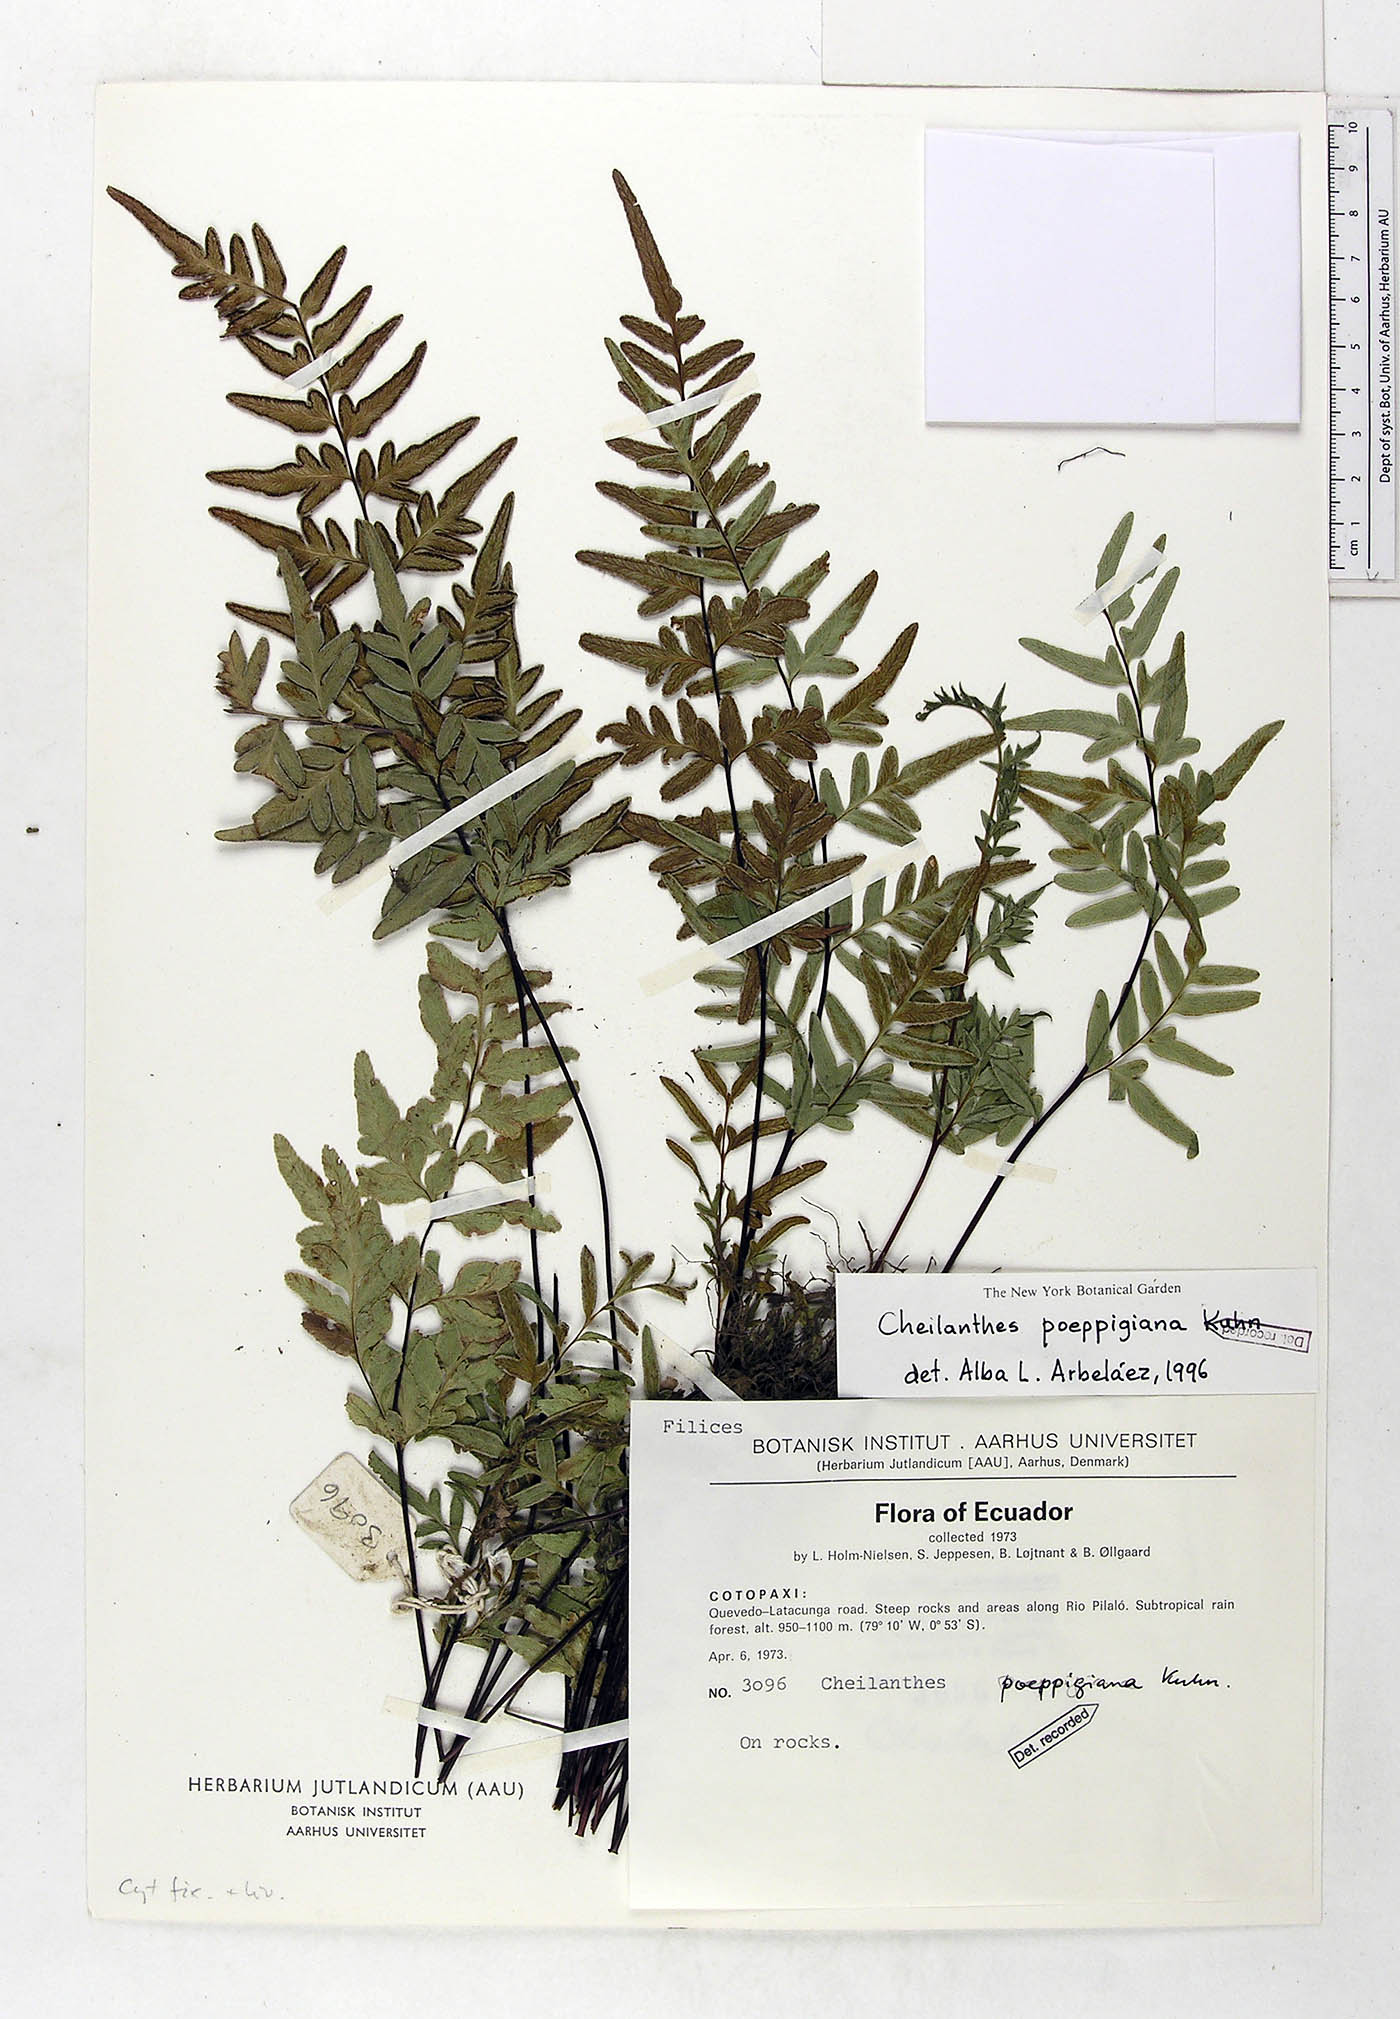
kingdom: Plantae
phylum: Tracheophyta
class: Polypodiopsida
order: Polypodiales
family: Pteridaceae
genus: Cheilanthes
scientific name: Cheilanthes poeppigiana
